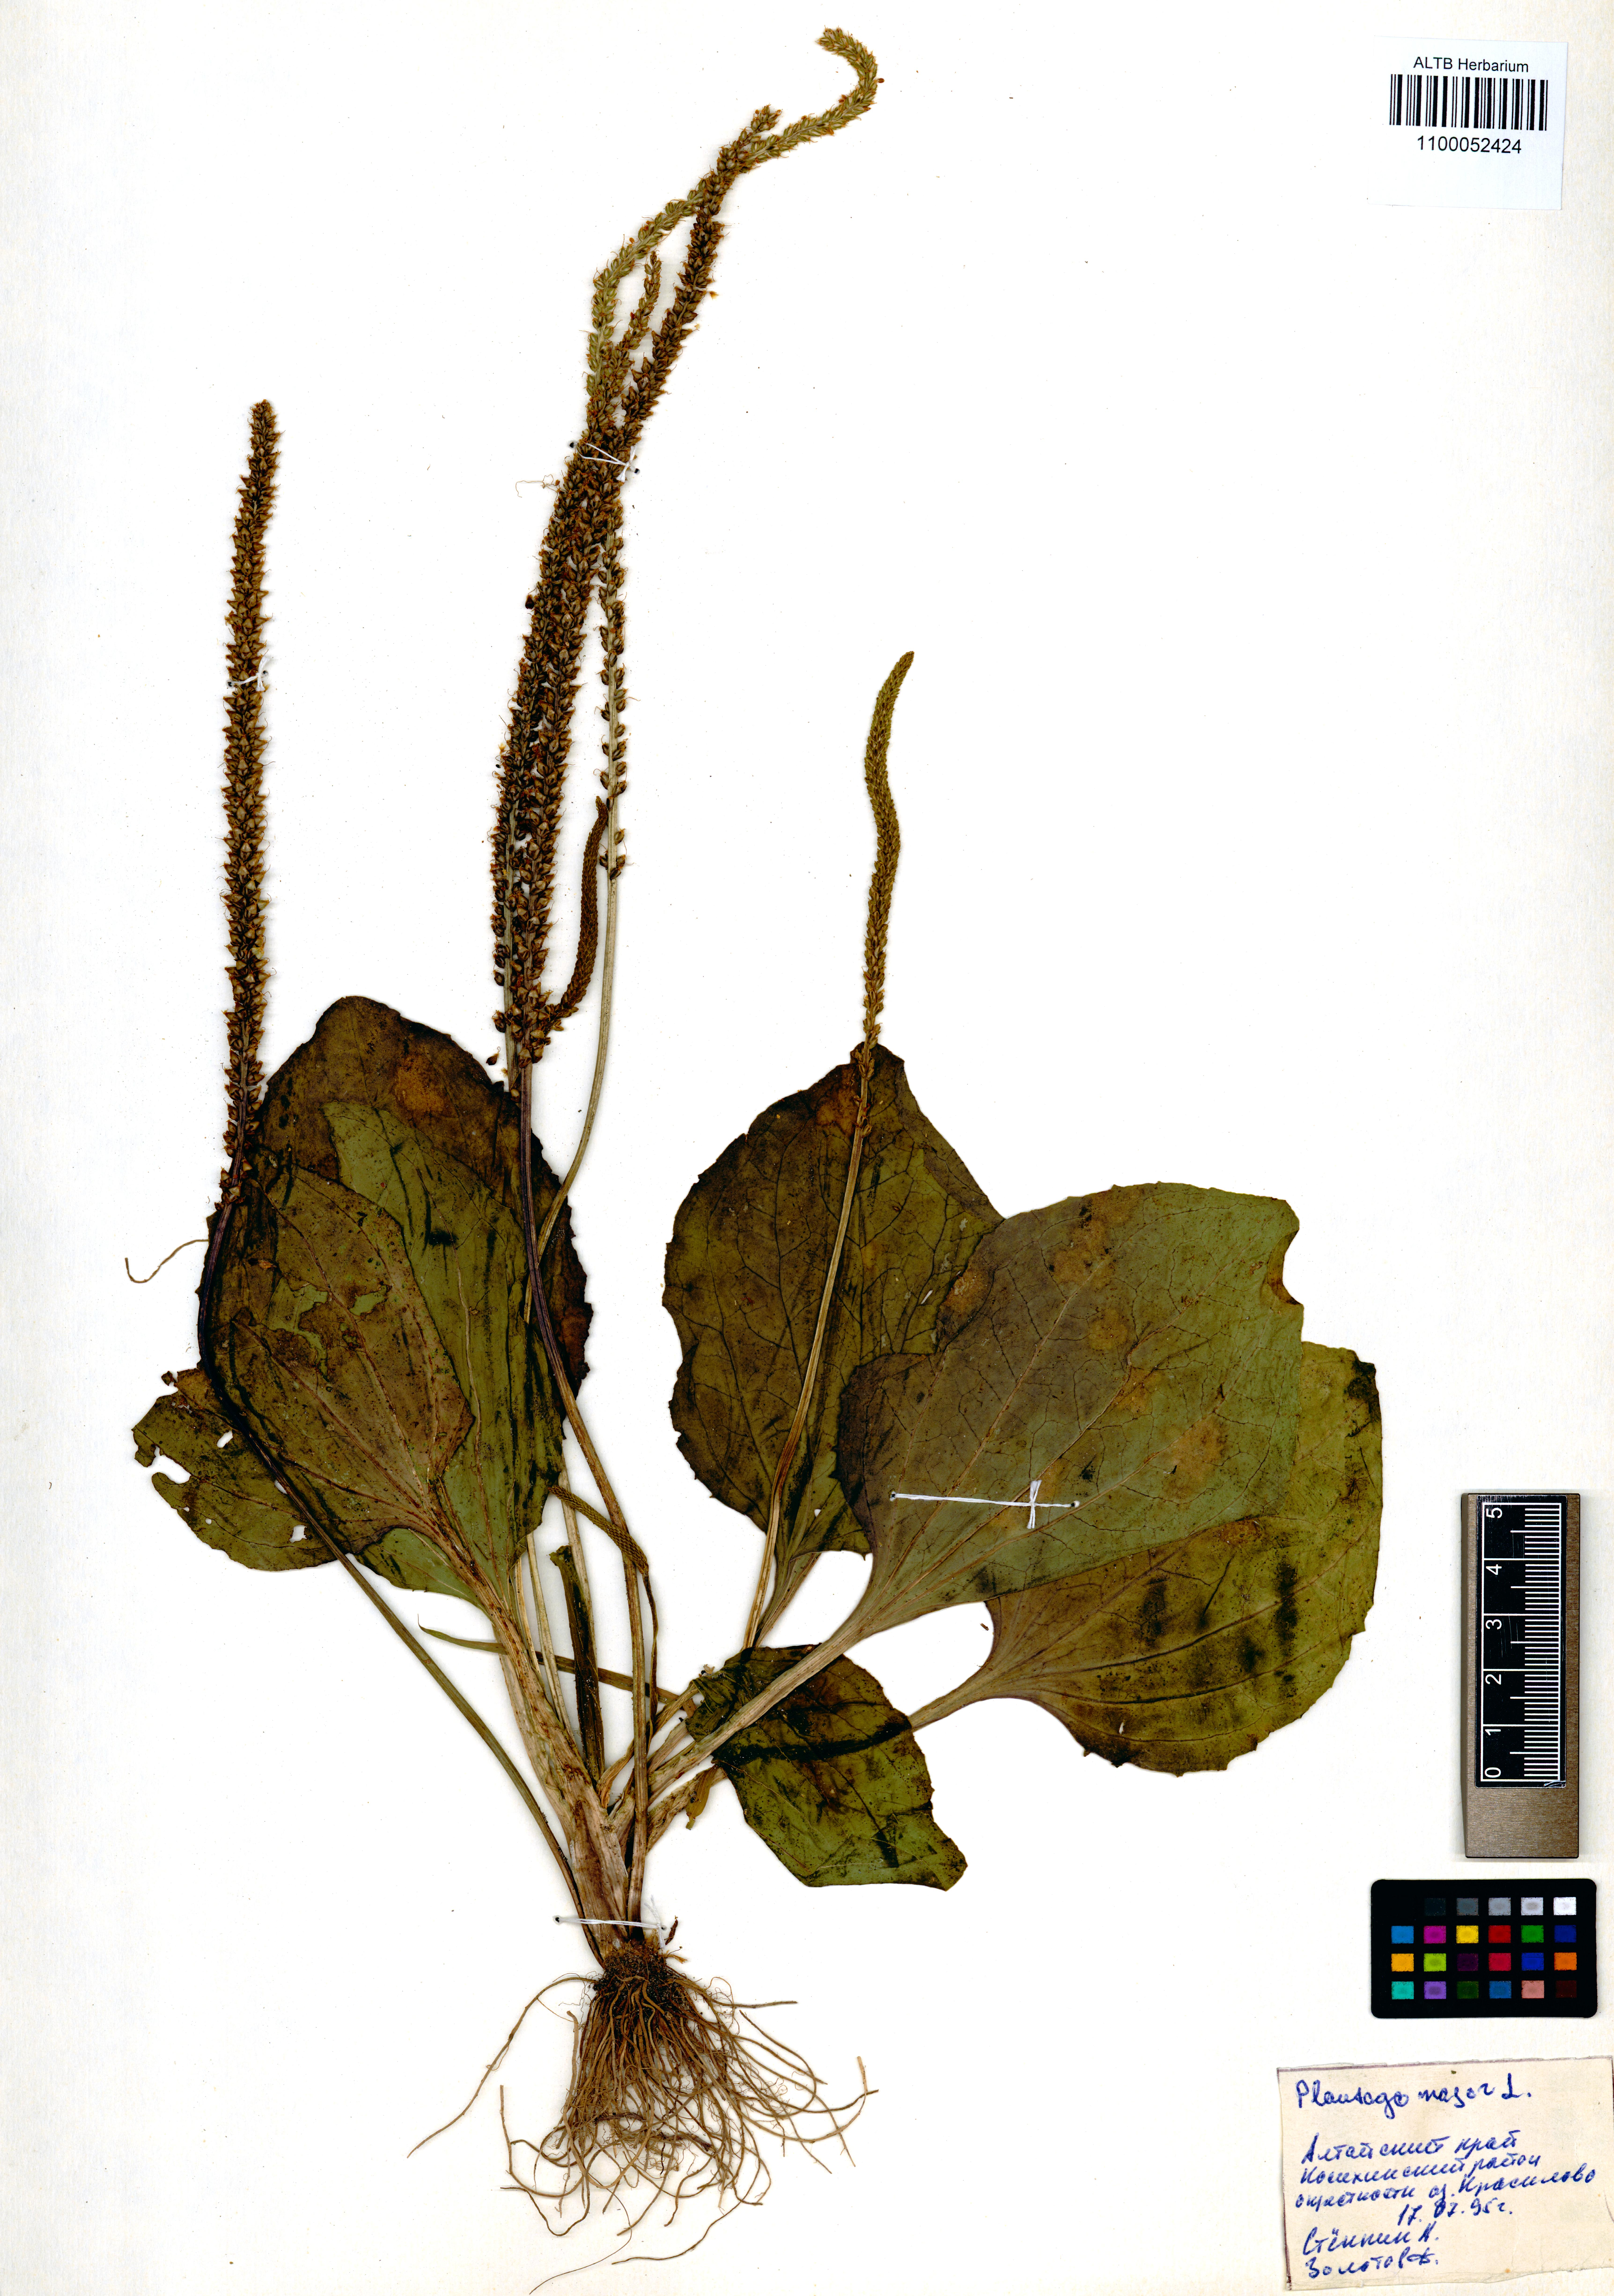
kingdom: Plantae
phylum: Tracheophyta
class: Magnoliopsida
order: Lamiales
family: Plantaginaceae
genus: Plantago
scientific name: Plantago major
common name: Common plantain
